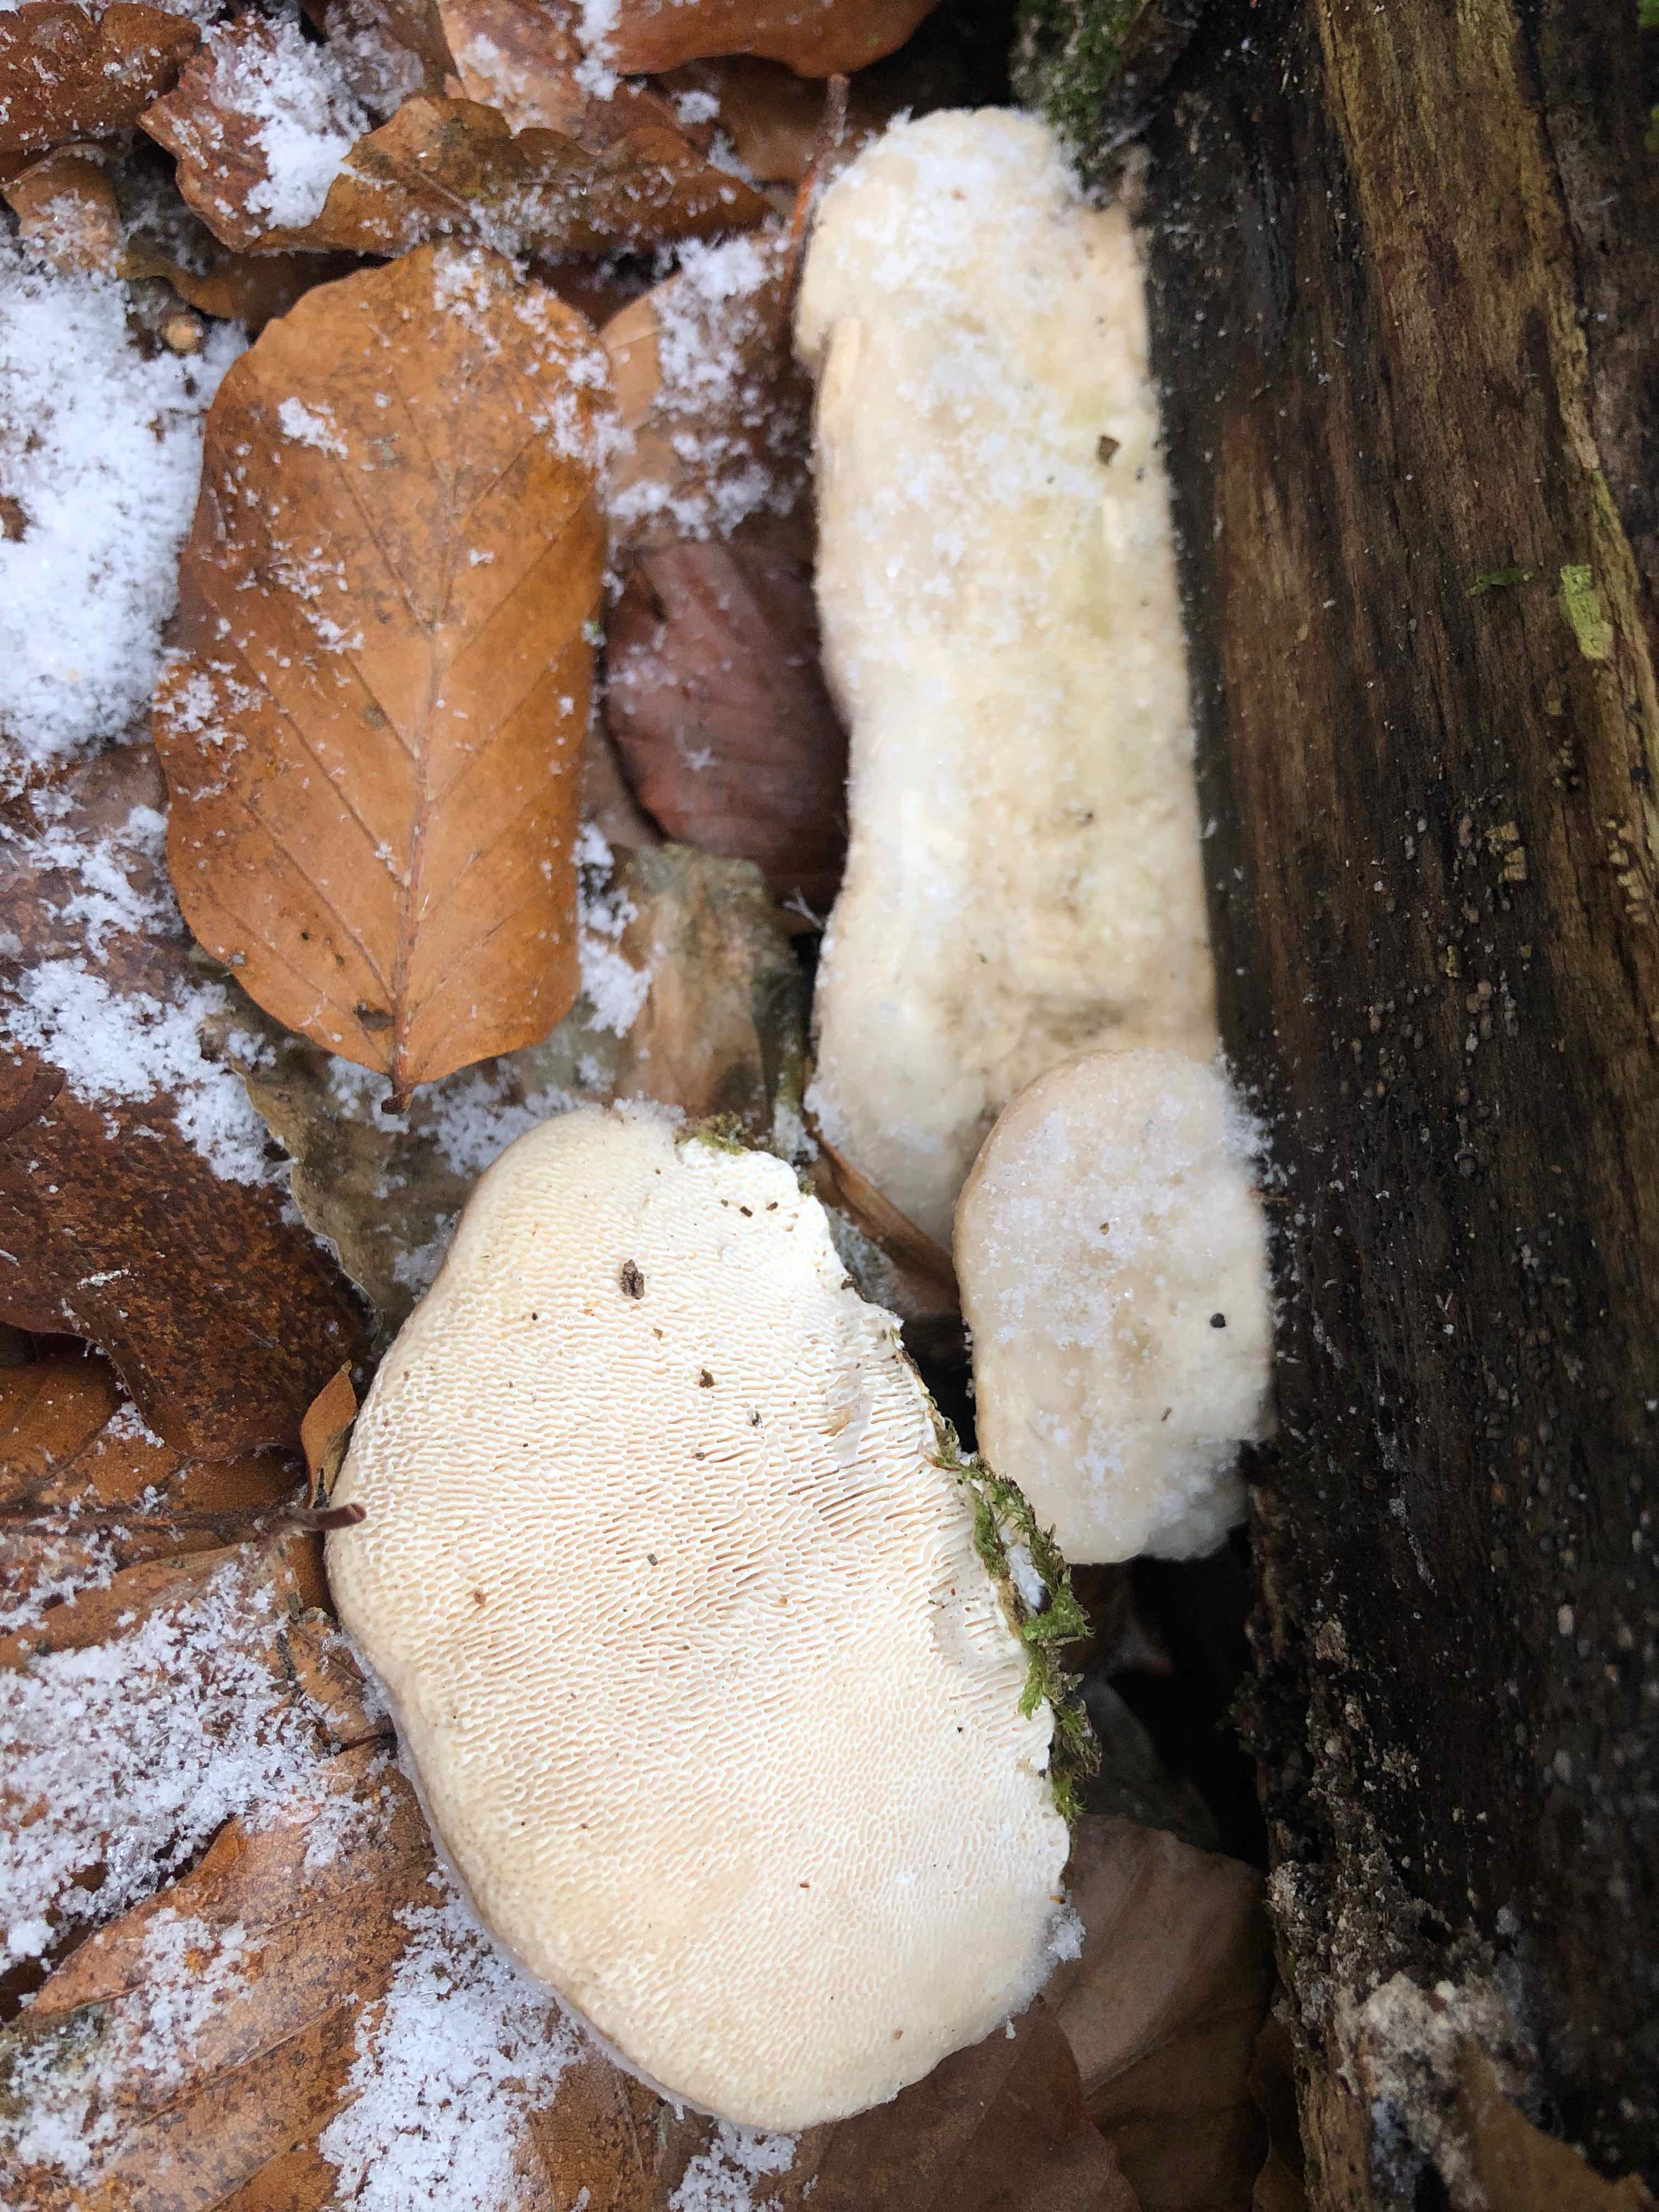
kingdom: Fungi
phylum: Basidiomycota
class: Agaricomycetes
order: Polyporales
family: Polyporaceae
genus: Trametes
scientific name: Trametes gibbosa
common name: puklet læderporesvamp
